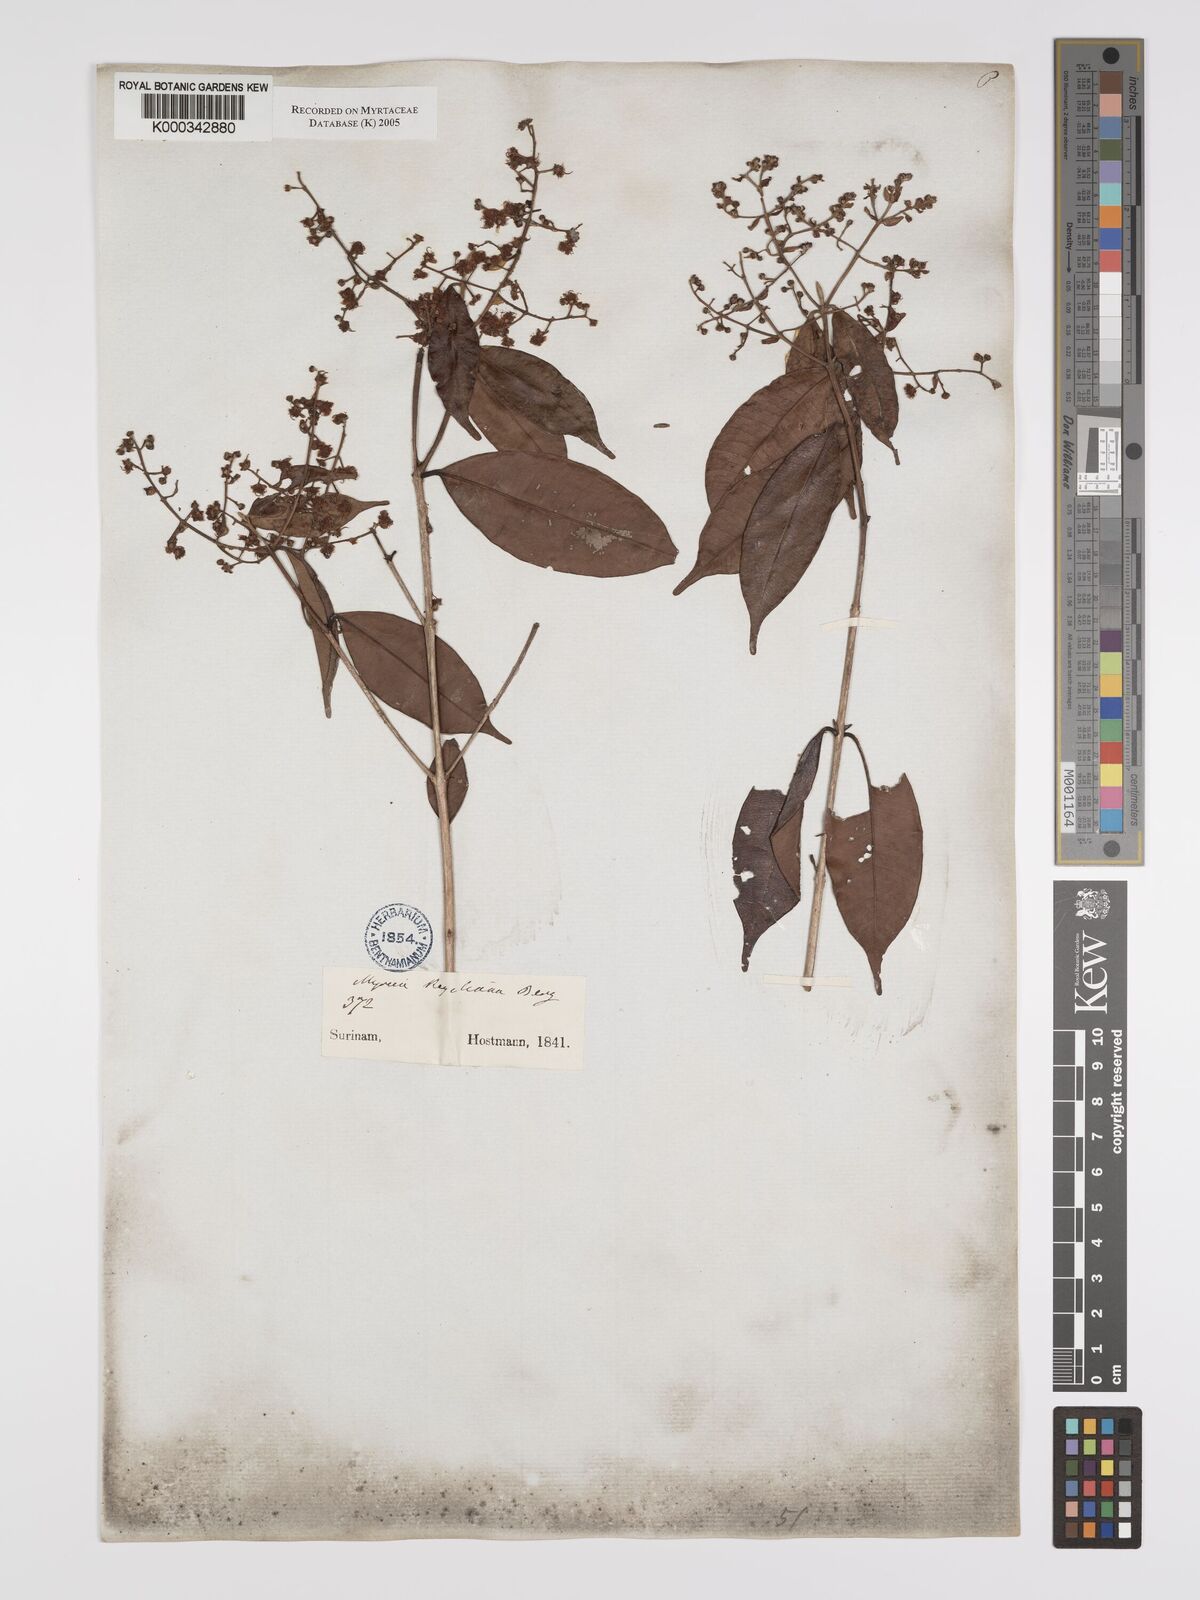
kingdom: Plantae
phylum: Tracheophyta
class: Magnoliopsida
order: Myrtales
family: Myrtaceae
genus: Myrcia
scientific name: Myrcia splendens
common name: Surinam cherry
